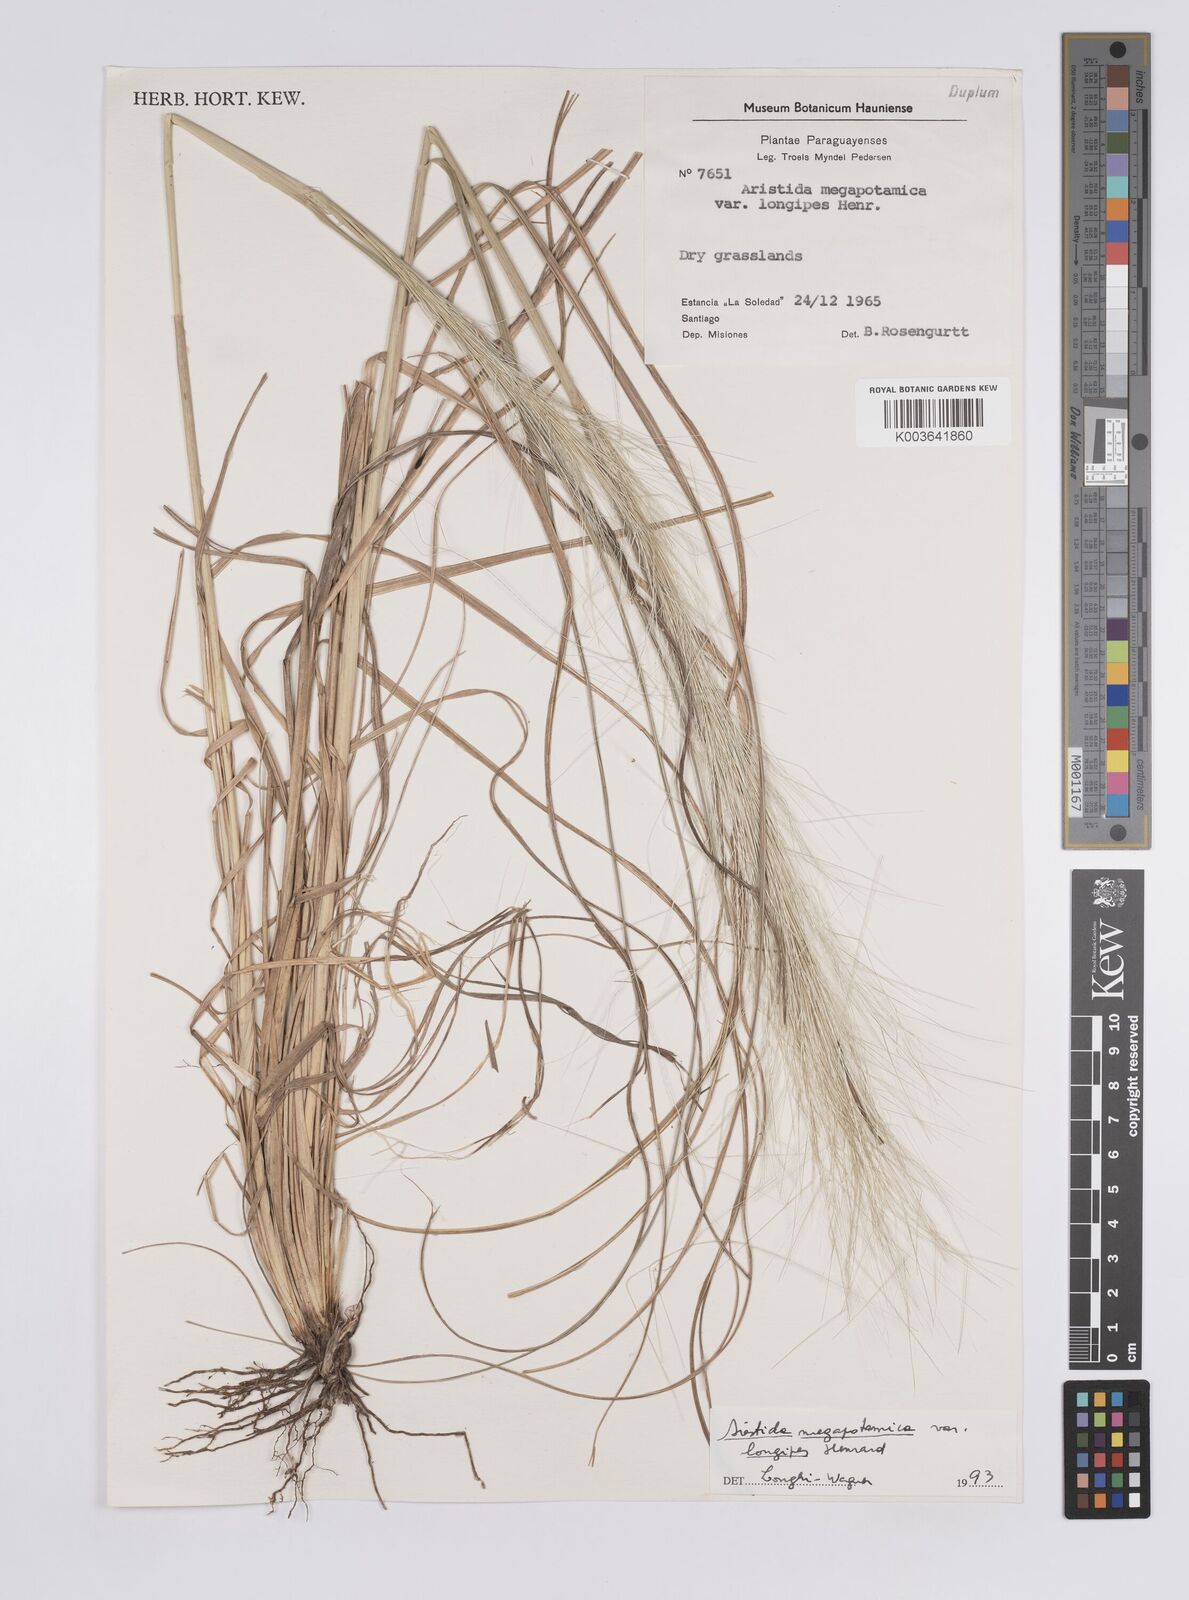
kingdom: Plantae
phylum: Tracheophyta
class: Liliopsida
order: Poales
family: Poaceae
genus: Aristida
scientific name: Aristida megapotamica
